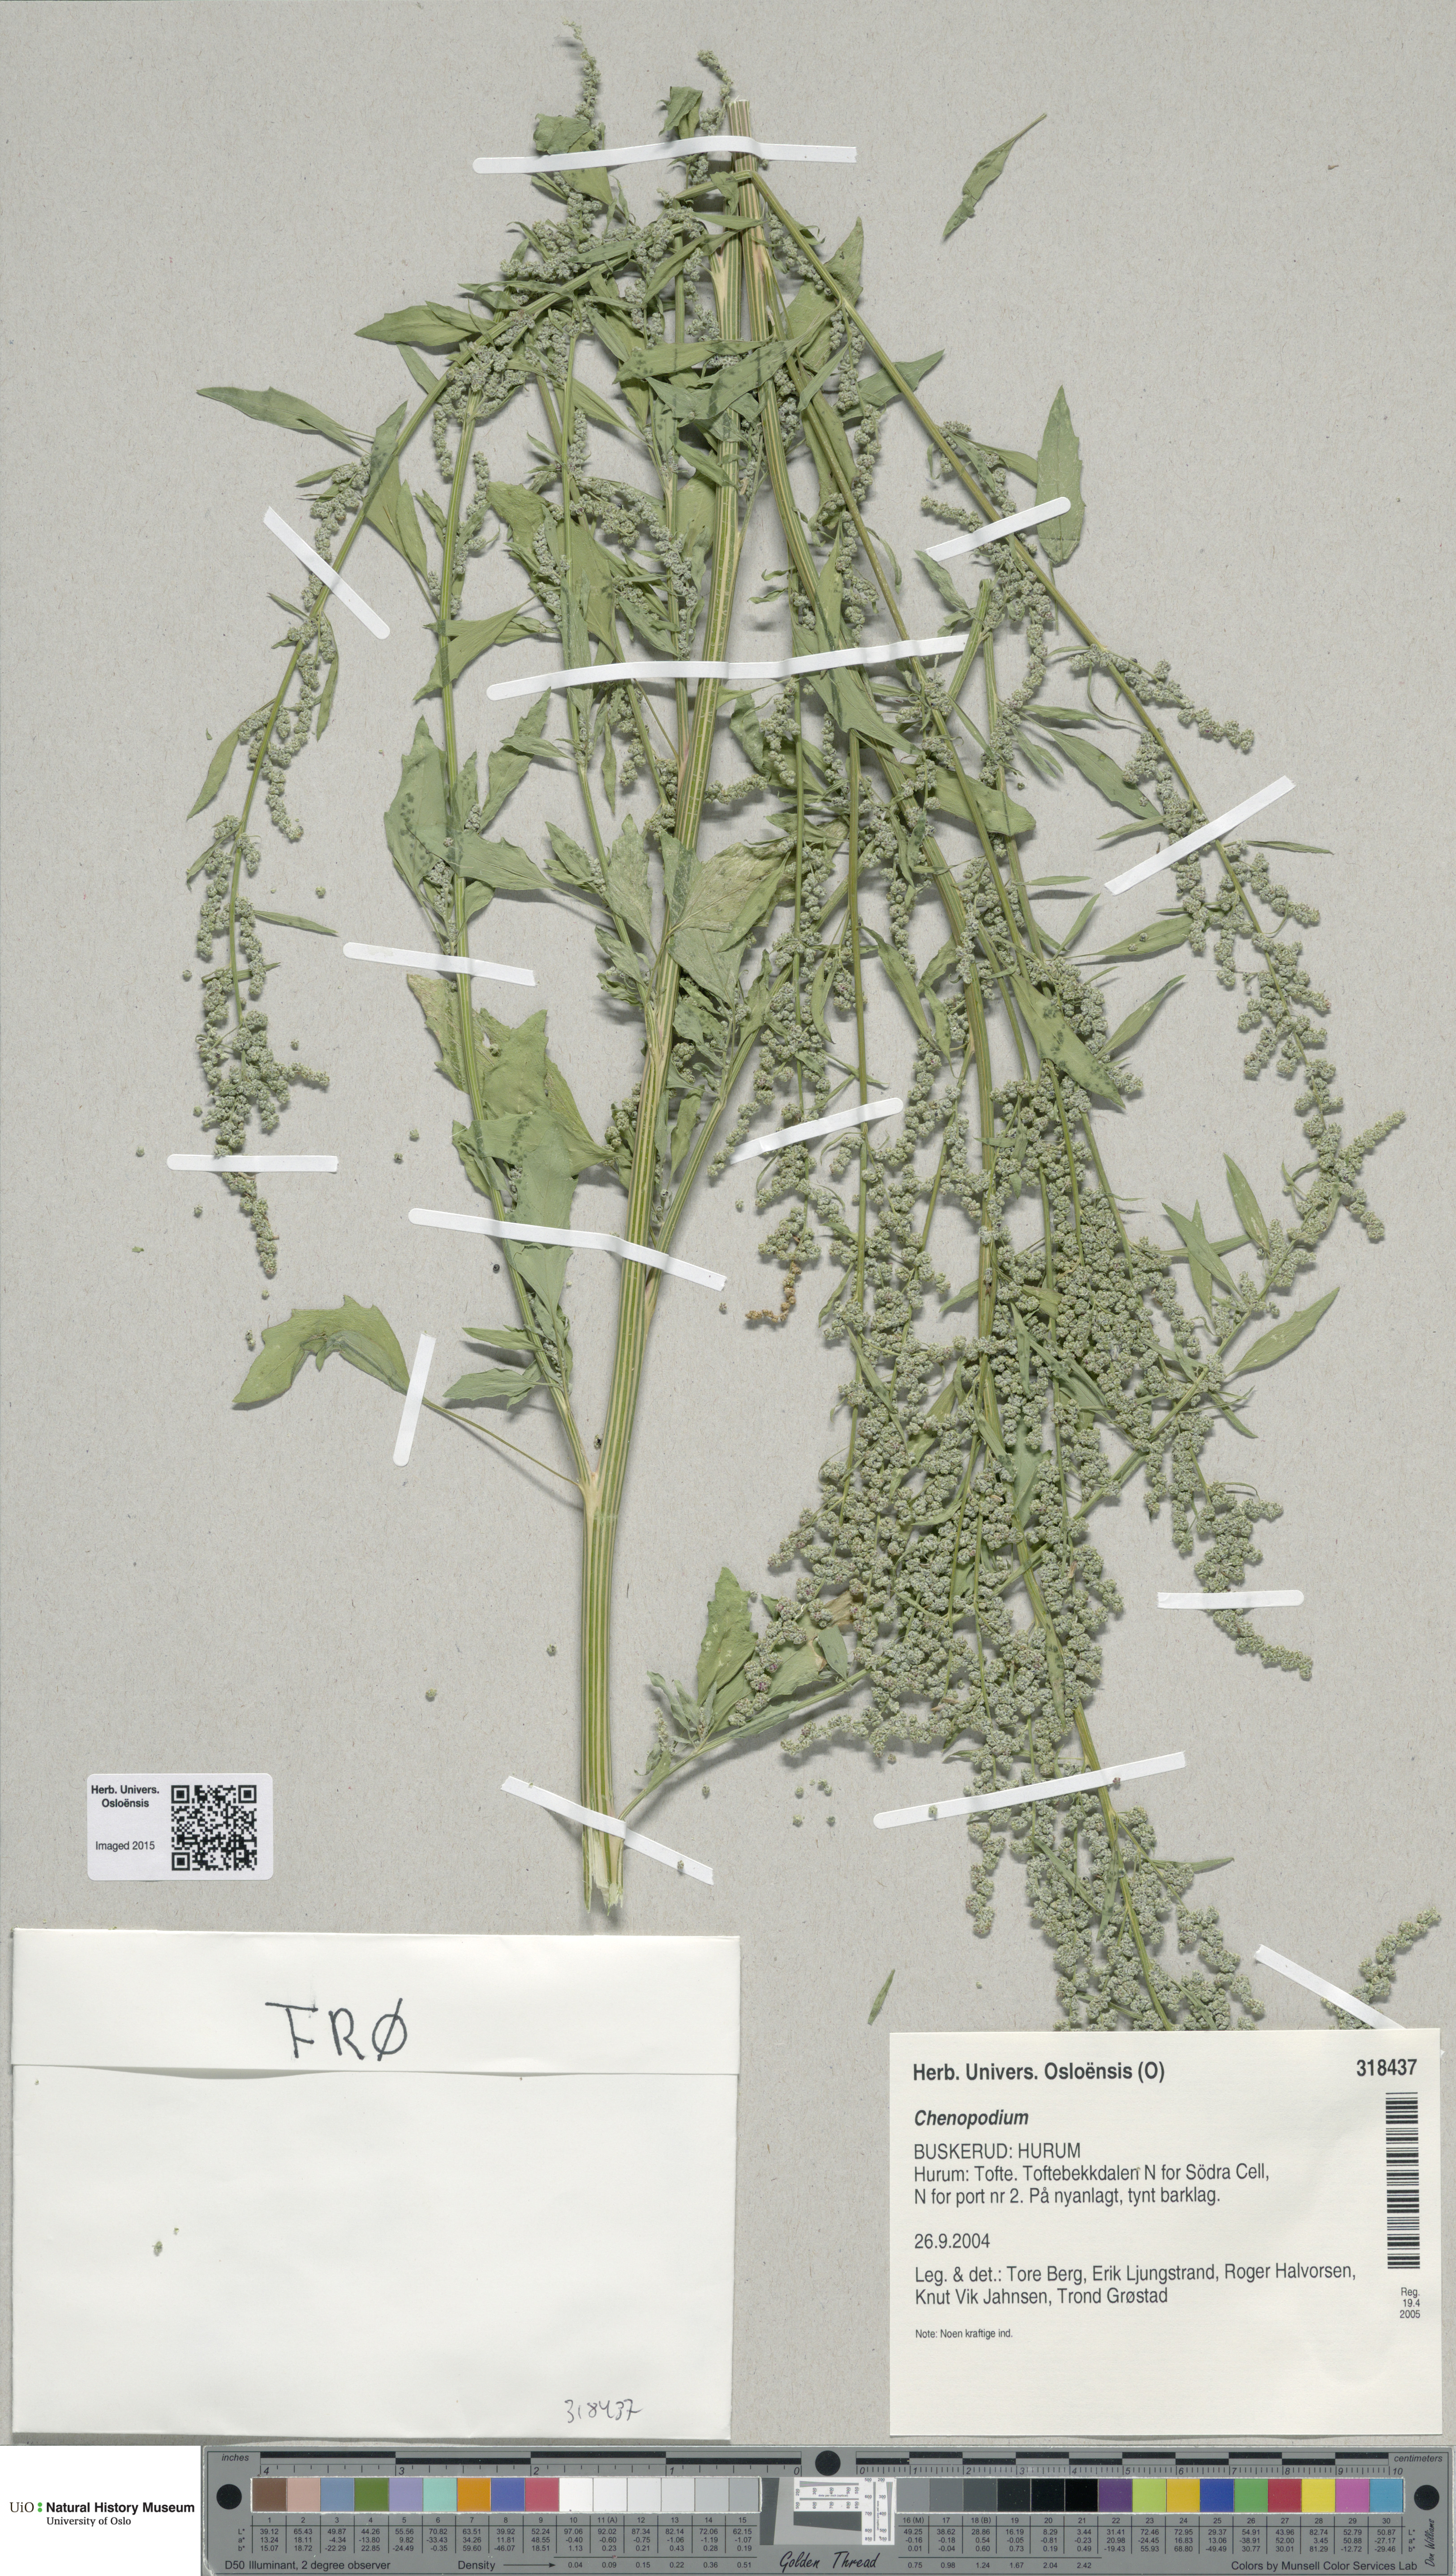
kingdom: Plantae
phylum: Tracheophyta
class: Magnoliopsida
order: Caryophyllales
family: Amaranthaceae
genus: Chenopodium
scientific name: Chenopodium
